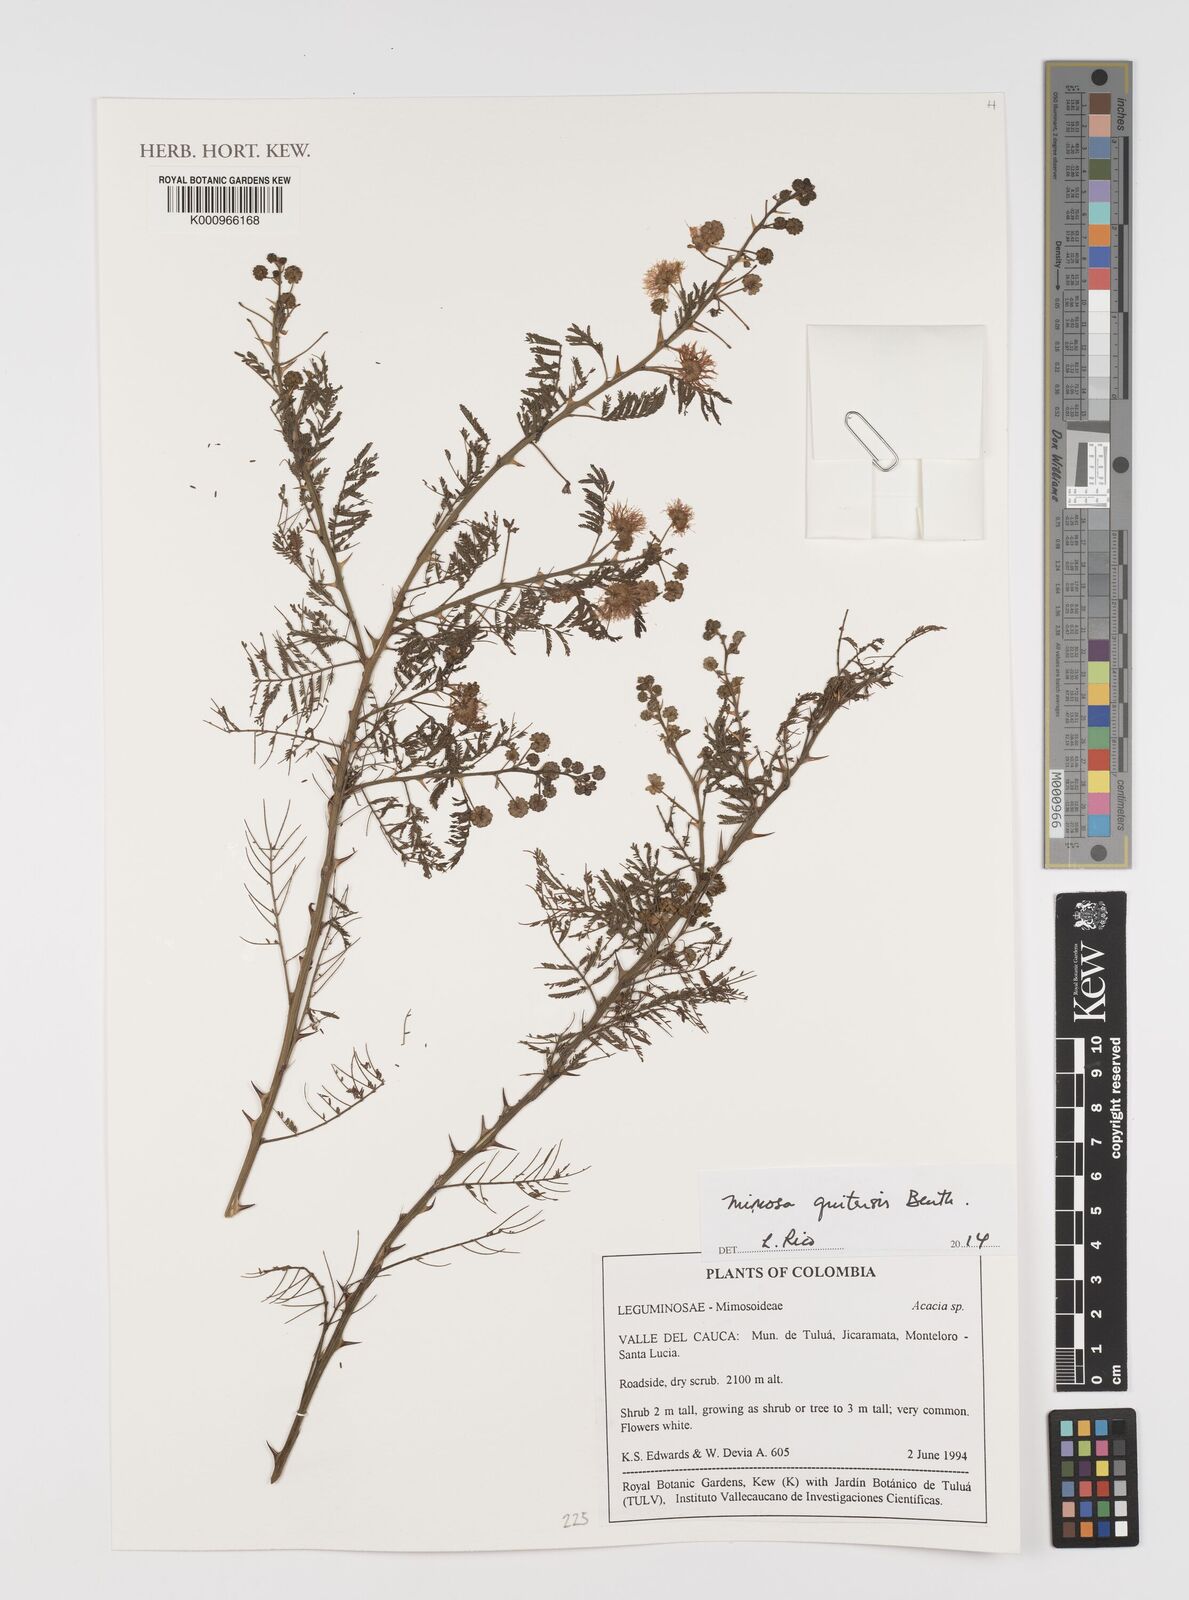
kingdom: Plantae
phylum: Tracheophyta
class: Magnoliopsida
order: Fabales
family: Fabaceae
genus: Mimosa
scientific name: Mimosa quitensis
